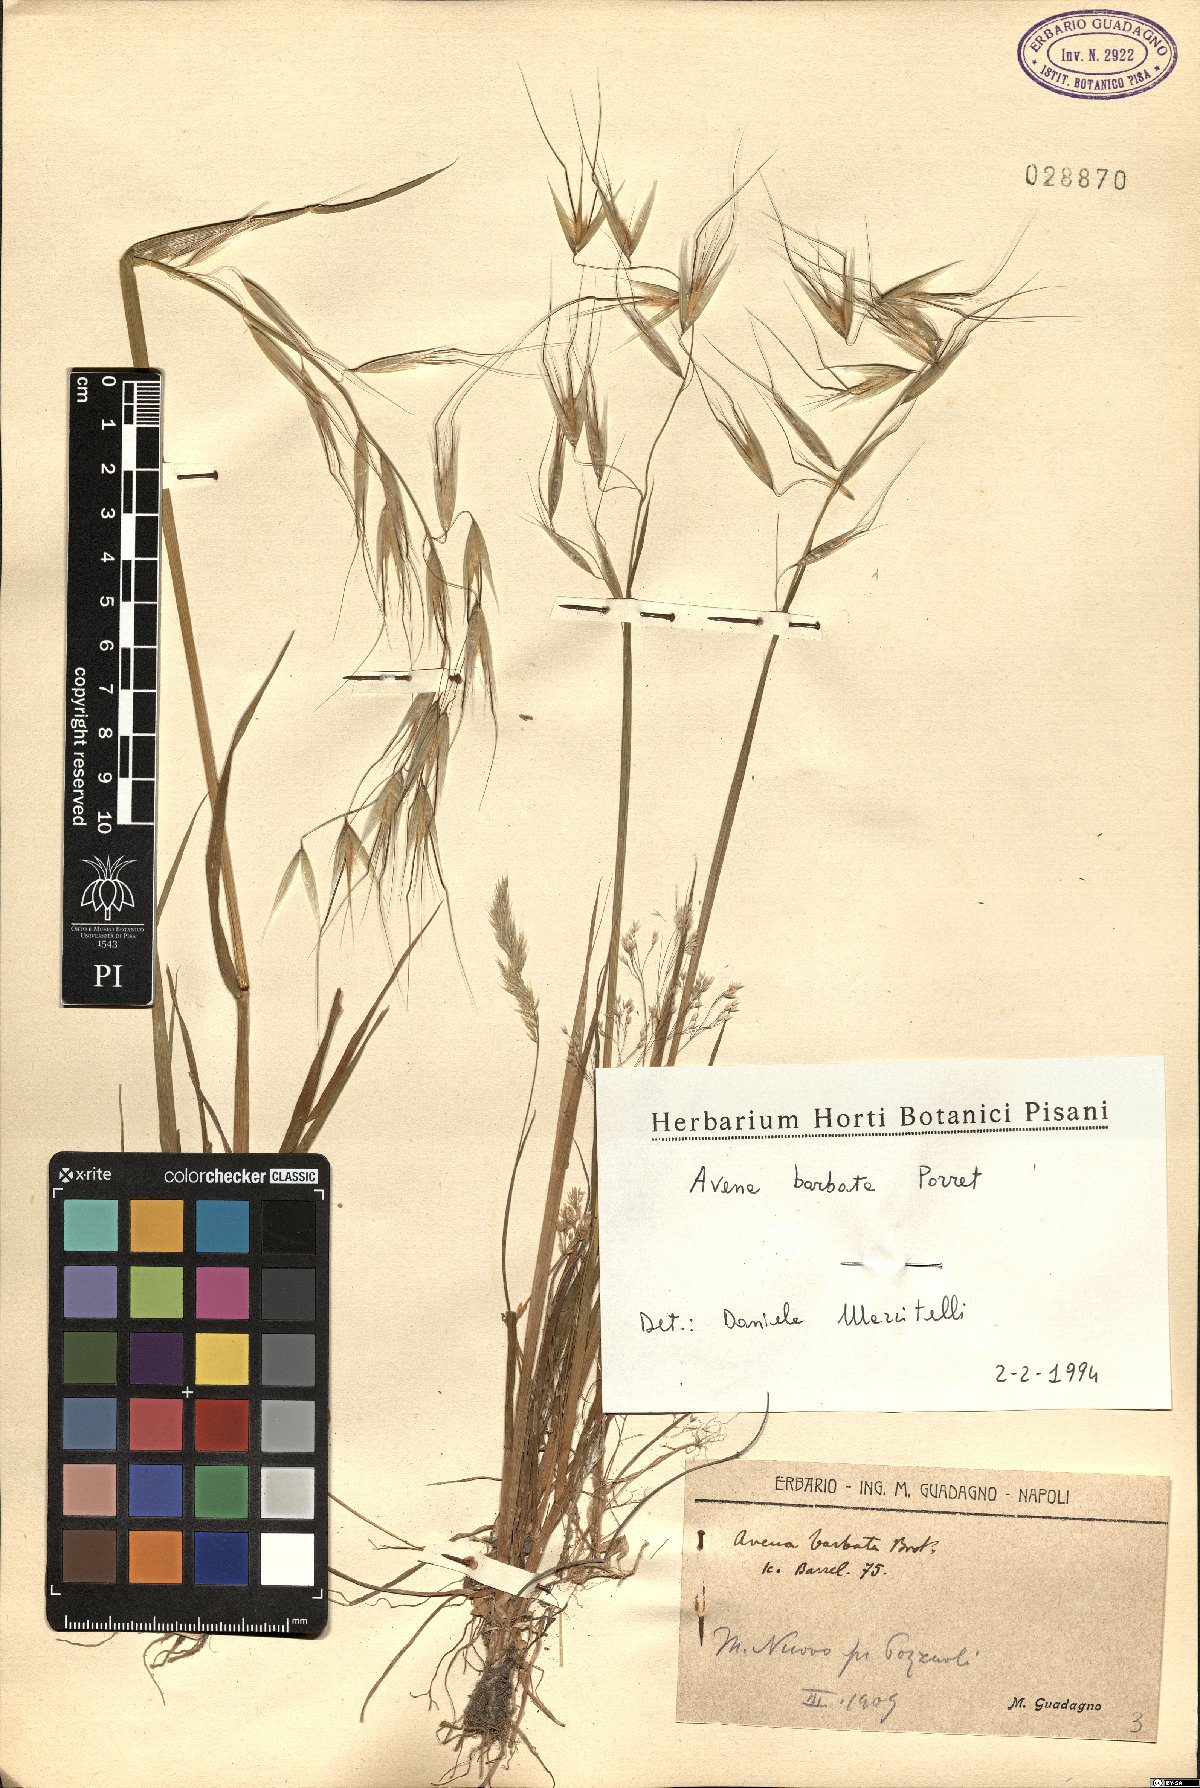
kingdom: Plantae
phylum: Tracheophyta
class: Liliopsida
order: Poales
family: Poaceae
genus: Avena
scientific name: Avena barbata
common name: Slender oat
